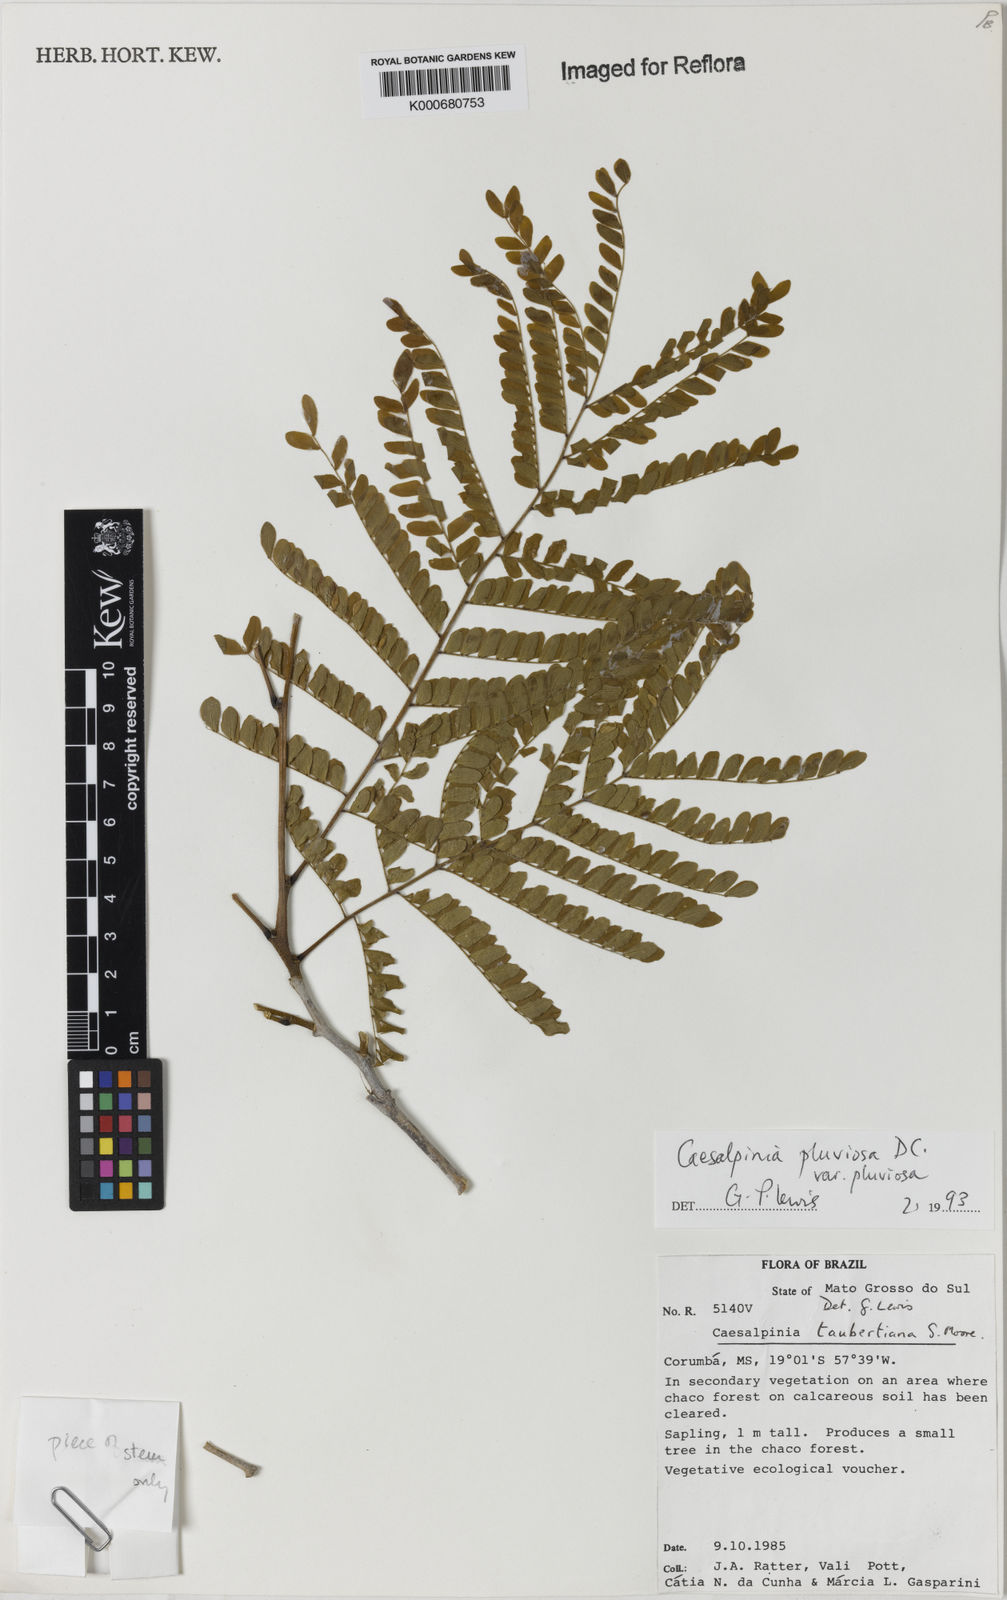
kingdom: Plantae
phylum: Tracheophyta
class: Magnoliopsida
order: Fabales
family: Fabaceae
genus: Cenostigma
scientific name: Cenostigma pluviosum
